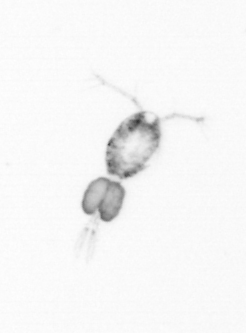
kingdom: Animalia
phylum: Arthropoda
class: Copepoda
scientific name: Copepoda
